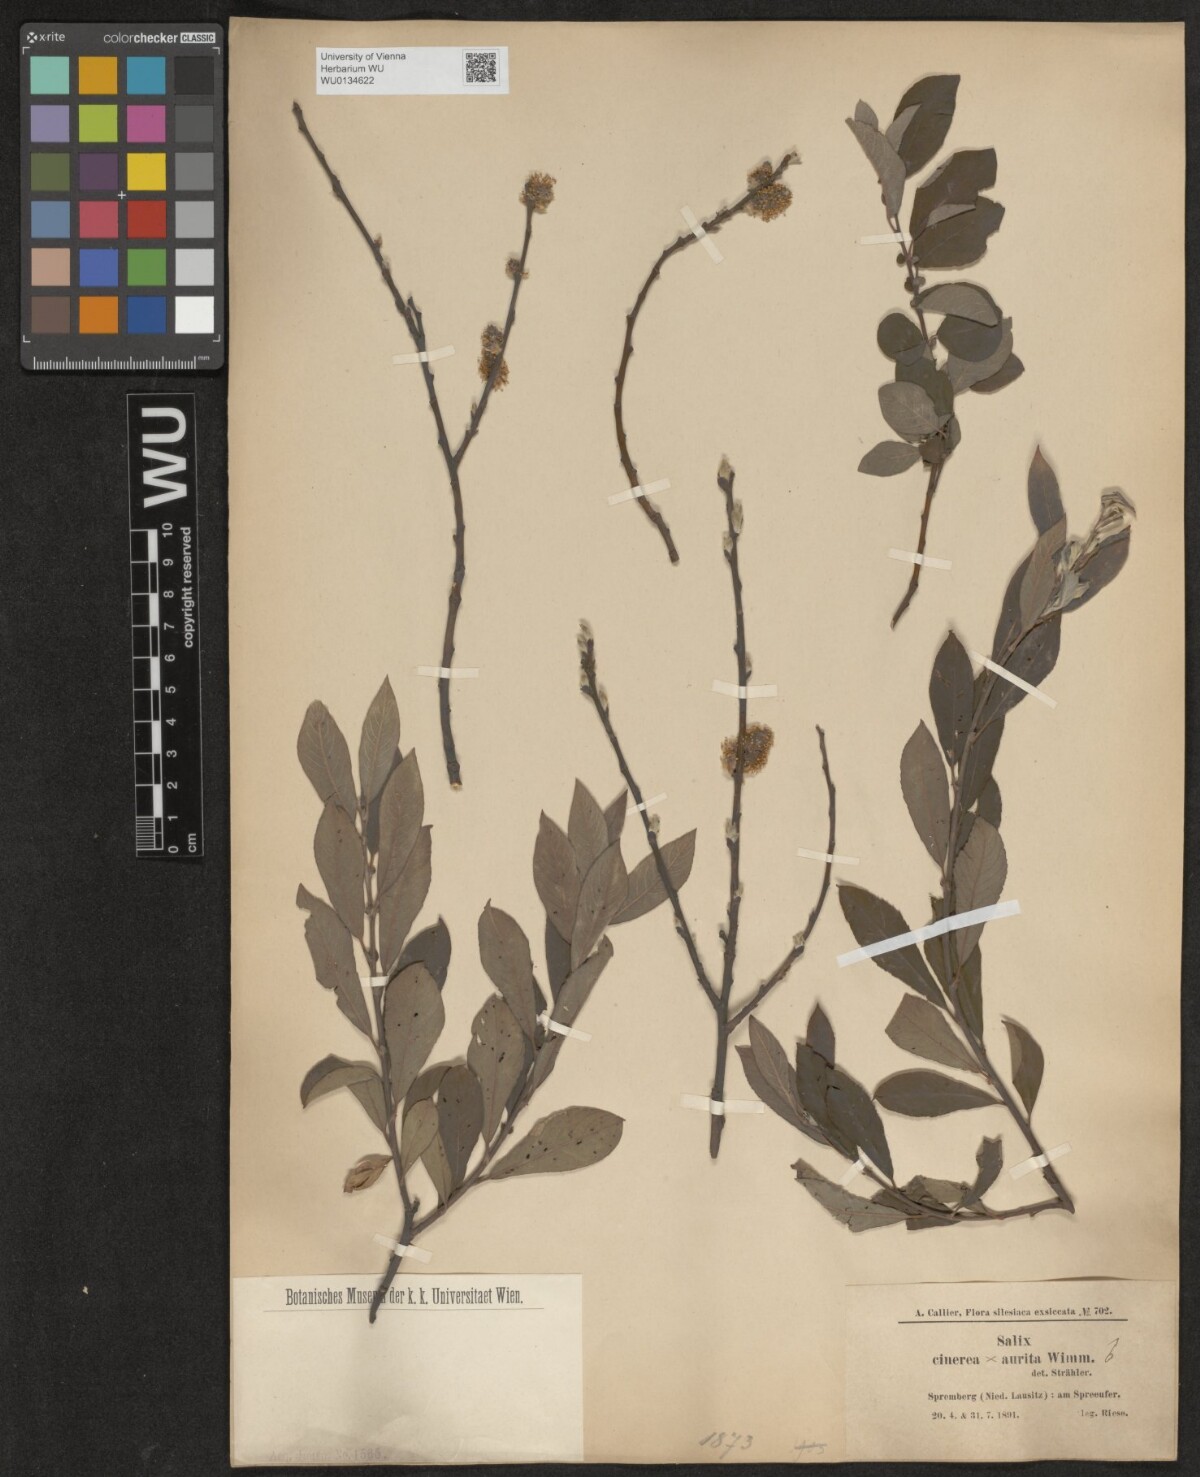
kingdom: Plantae
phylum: Tracheophyta
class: Magnoliopsida
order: Malpighiales
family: Salicaceae
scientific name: Salicaceae
